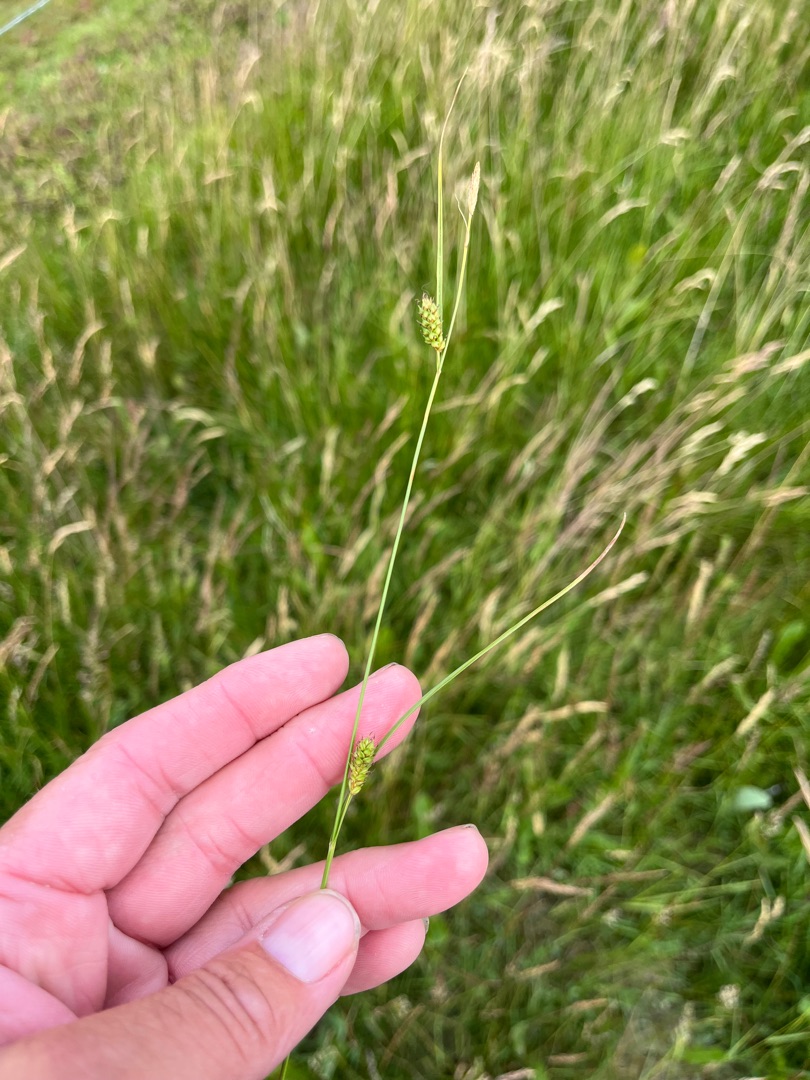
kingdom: Plantae
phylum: Tracheophyta
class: Liliopsida
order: Poales
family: Cyperaceae
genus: Carex
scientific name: Carex distans
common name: Fjernakset star
